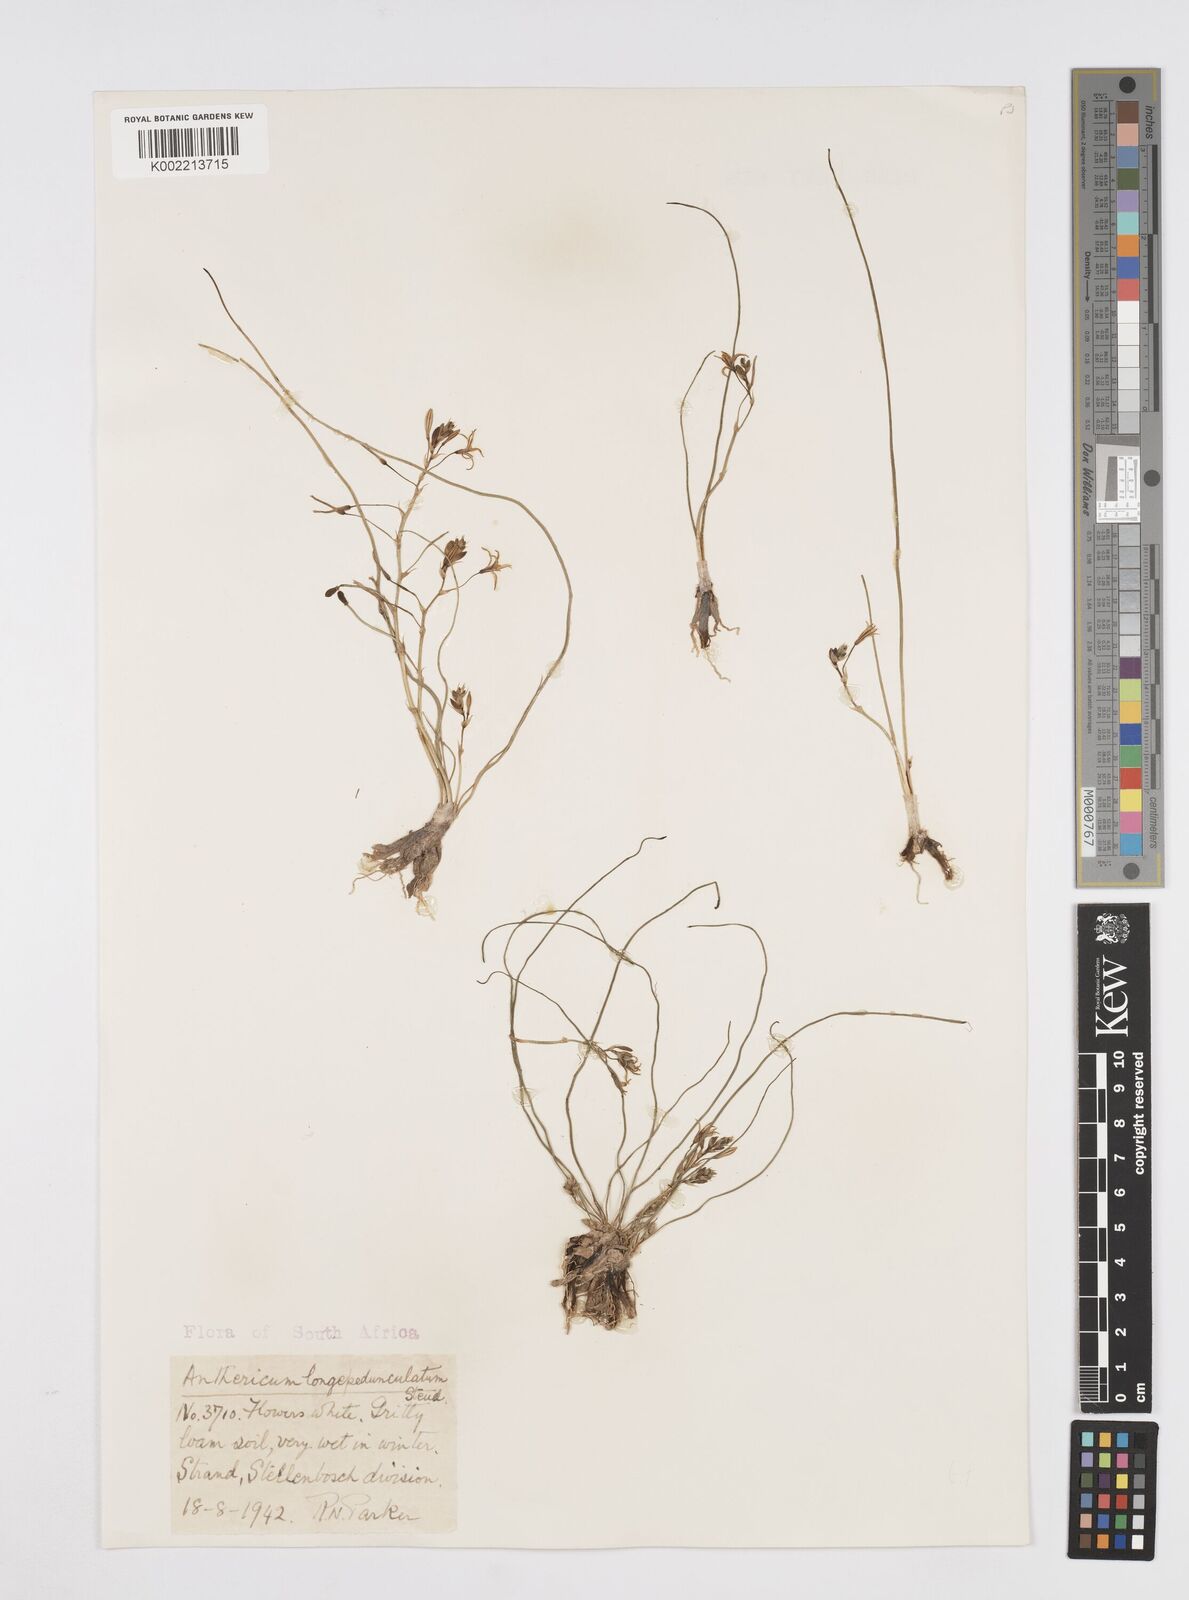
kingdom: Plantae
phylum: Tracheophyta
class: Liliopsida
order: Asparagales
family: Asphodelaceae
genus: Trachyandra
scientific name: Trachyandra filiformis
